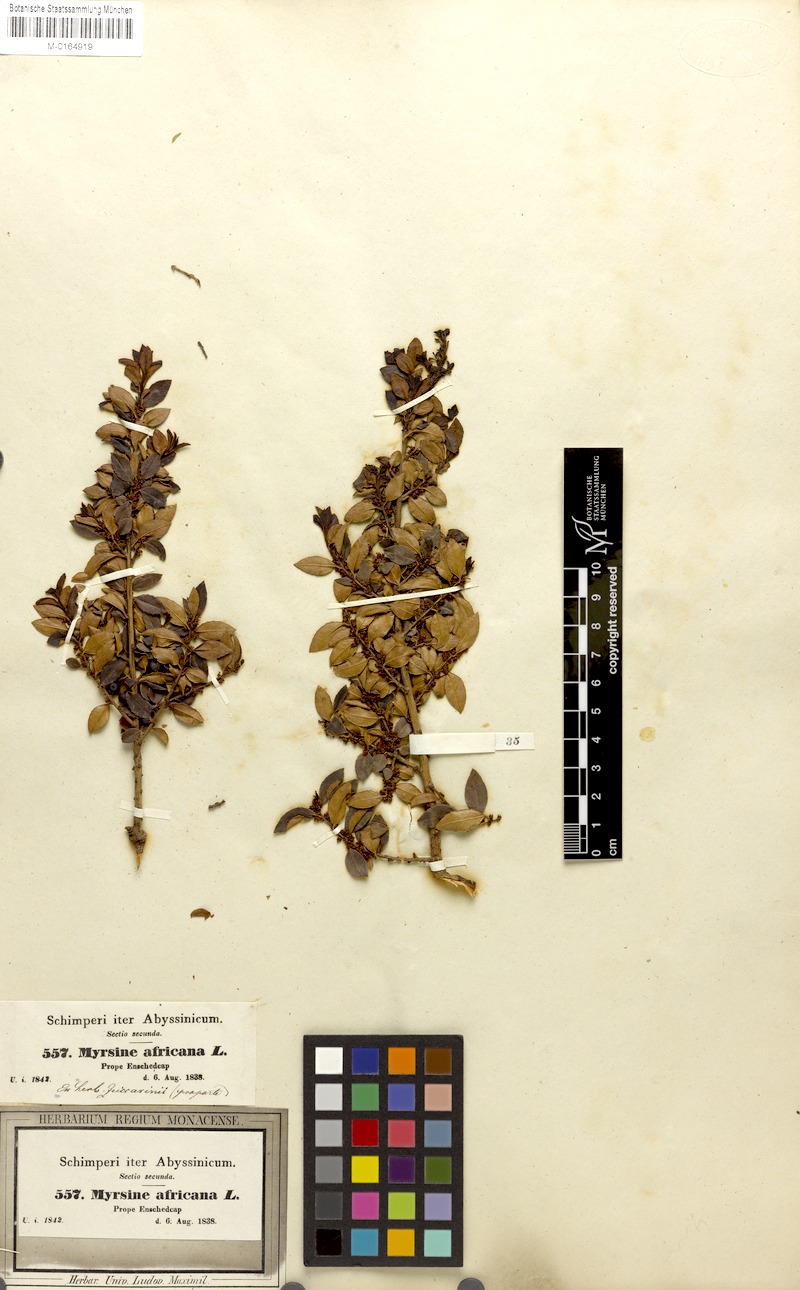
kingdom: Plantae
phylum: Tracheophyta
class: Magnoliopsida
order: Ericales
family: Primulaceae
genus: Myrsine
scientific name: Myrsine africana
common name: African-boxwood
